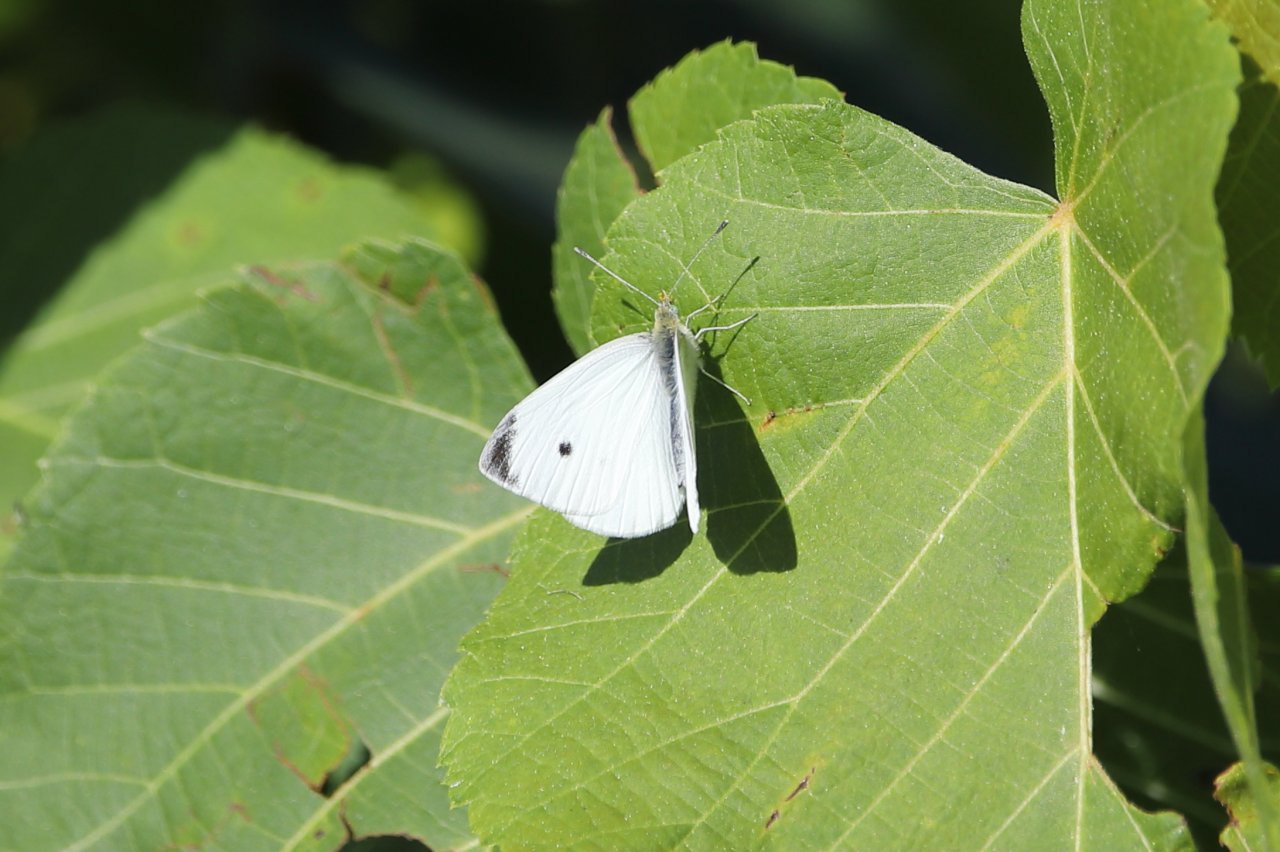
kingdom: Animalia
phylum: Arthropoda
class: Insecta
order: Lepidoptera
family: Pieridae
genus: Pieris
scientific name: Pieris rapae
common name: Cabbage White
